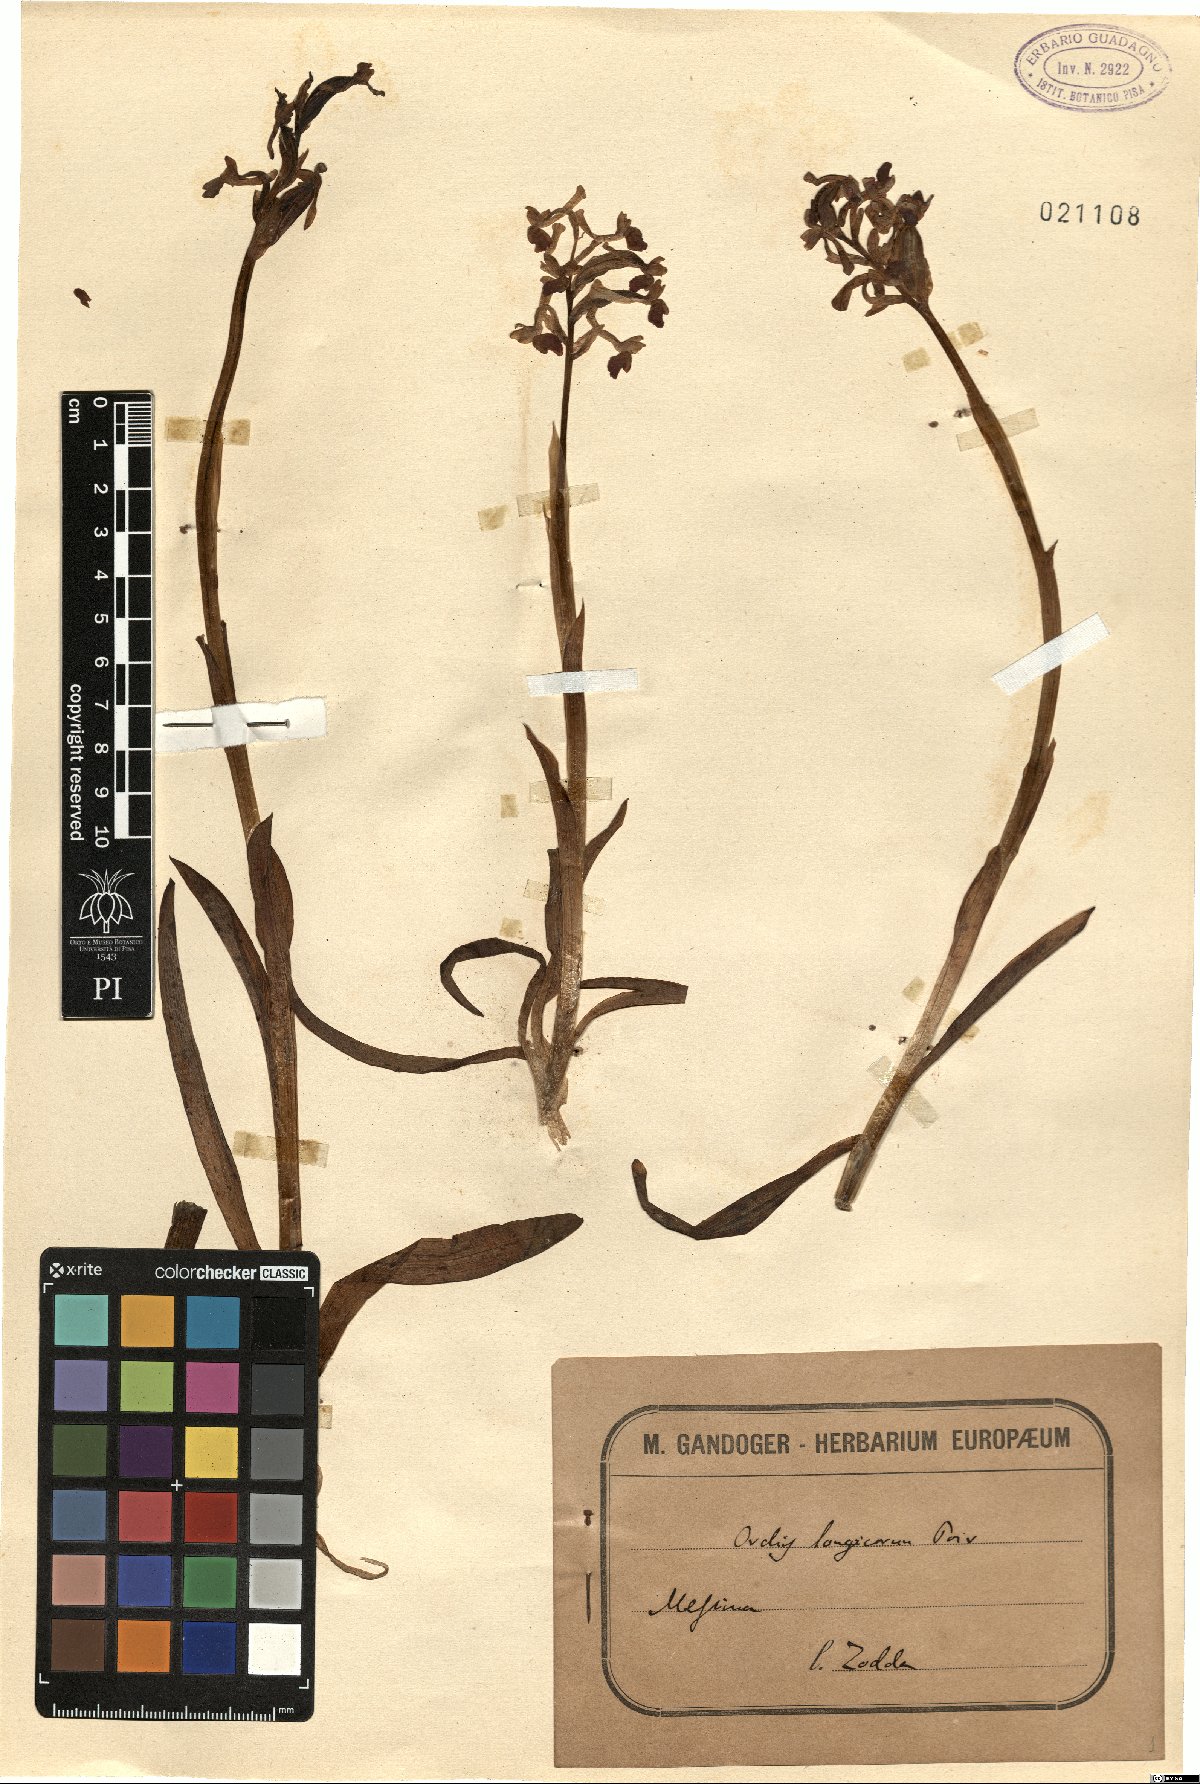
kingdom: Plantae
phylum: Tracheophyta
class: Liliopsida
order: Asparagales
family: Orchidaceae
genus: Anacamptis
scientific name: Anacamptis morio
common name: Green-winged orchid
